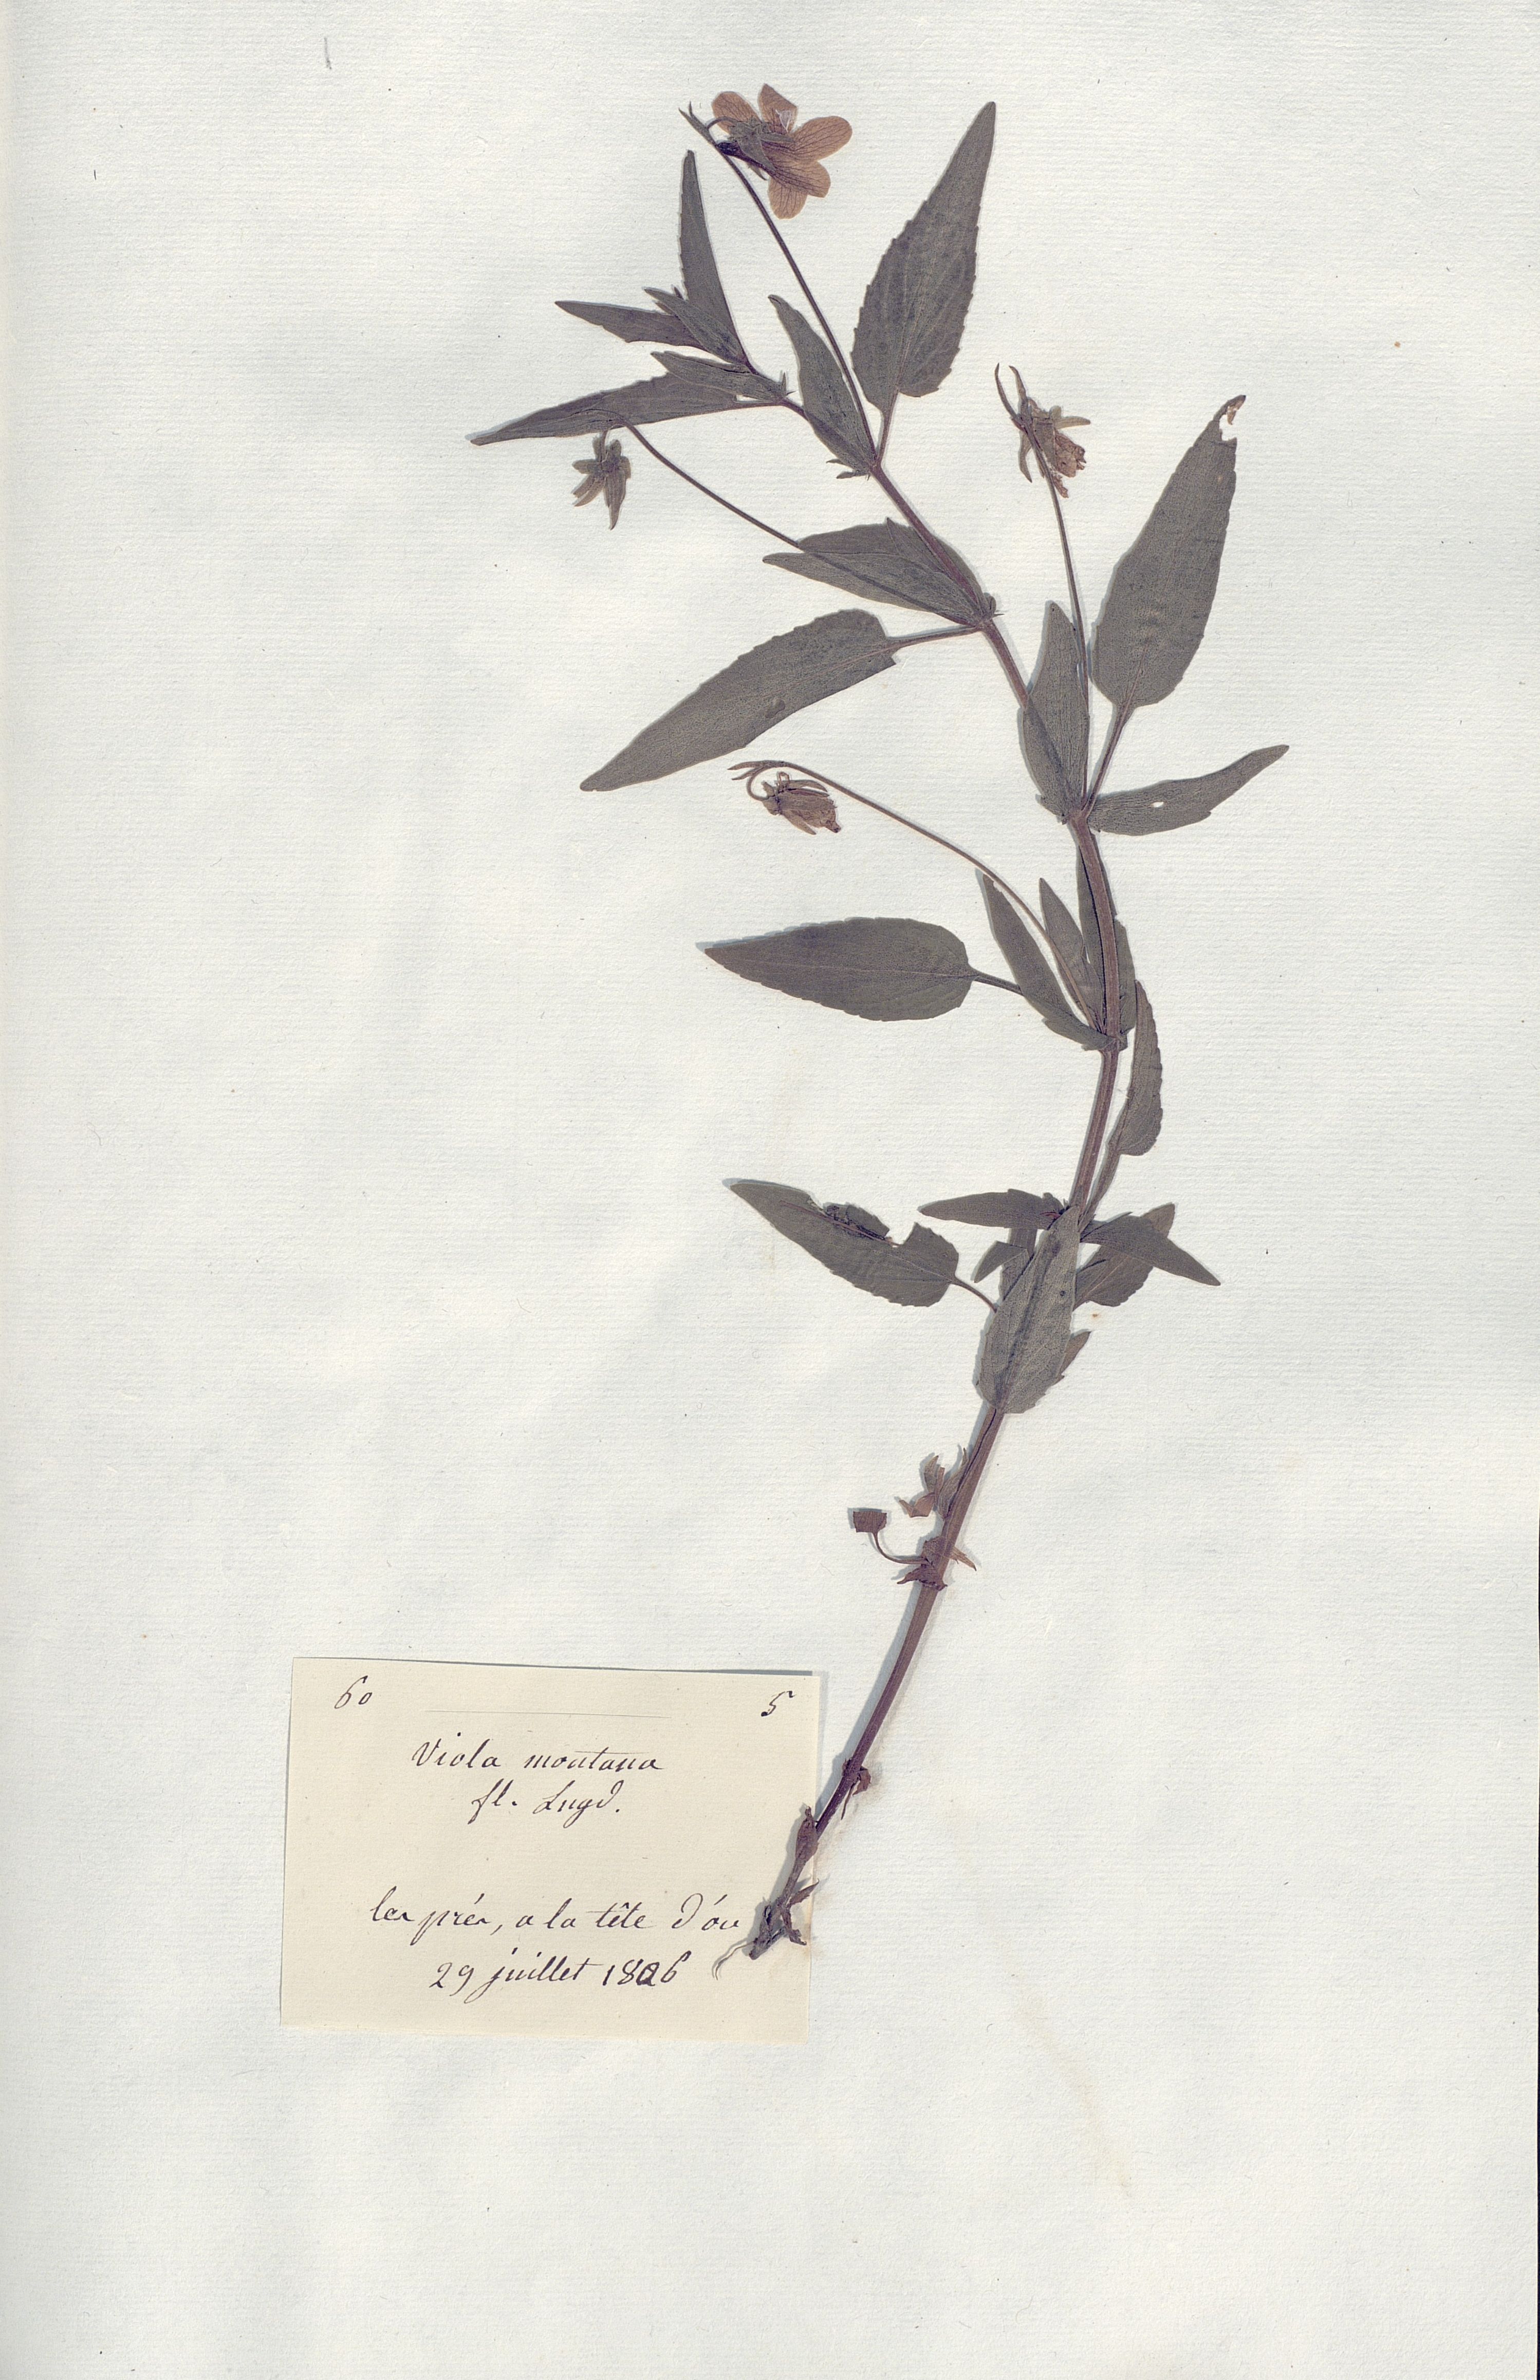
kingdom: Plantae
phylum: Tracheophyta
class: Magnoliopsida
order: Malpighiales
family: Violaceae
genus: Viola
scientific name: Viola
